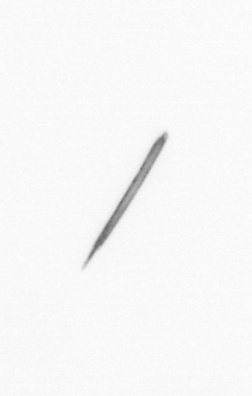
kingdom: Bacteria
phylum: Cyanobacteria
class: Cyanobacteriia
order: Cyanobacteriales
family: Microcoleaceae
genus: Trichodesmium
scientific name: Trichodesmium
